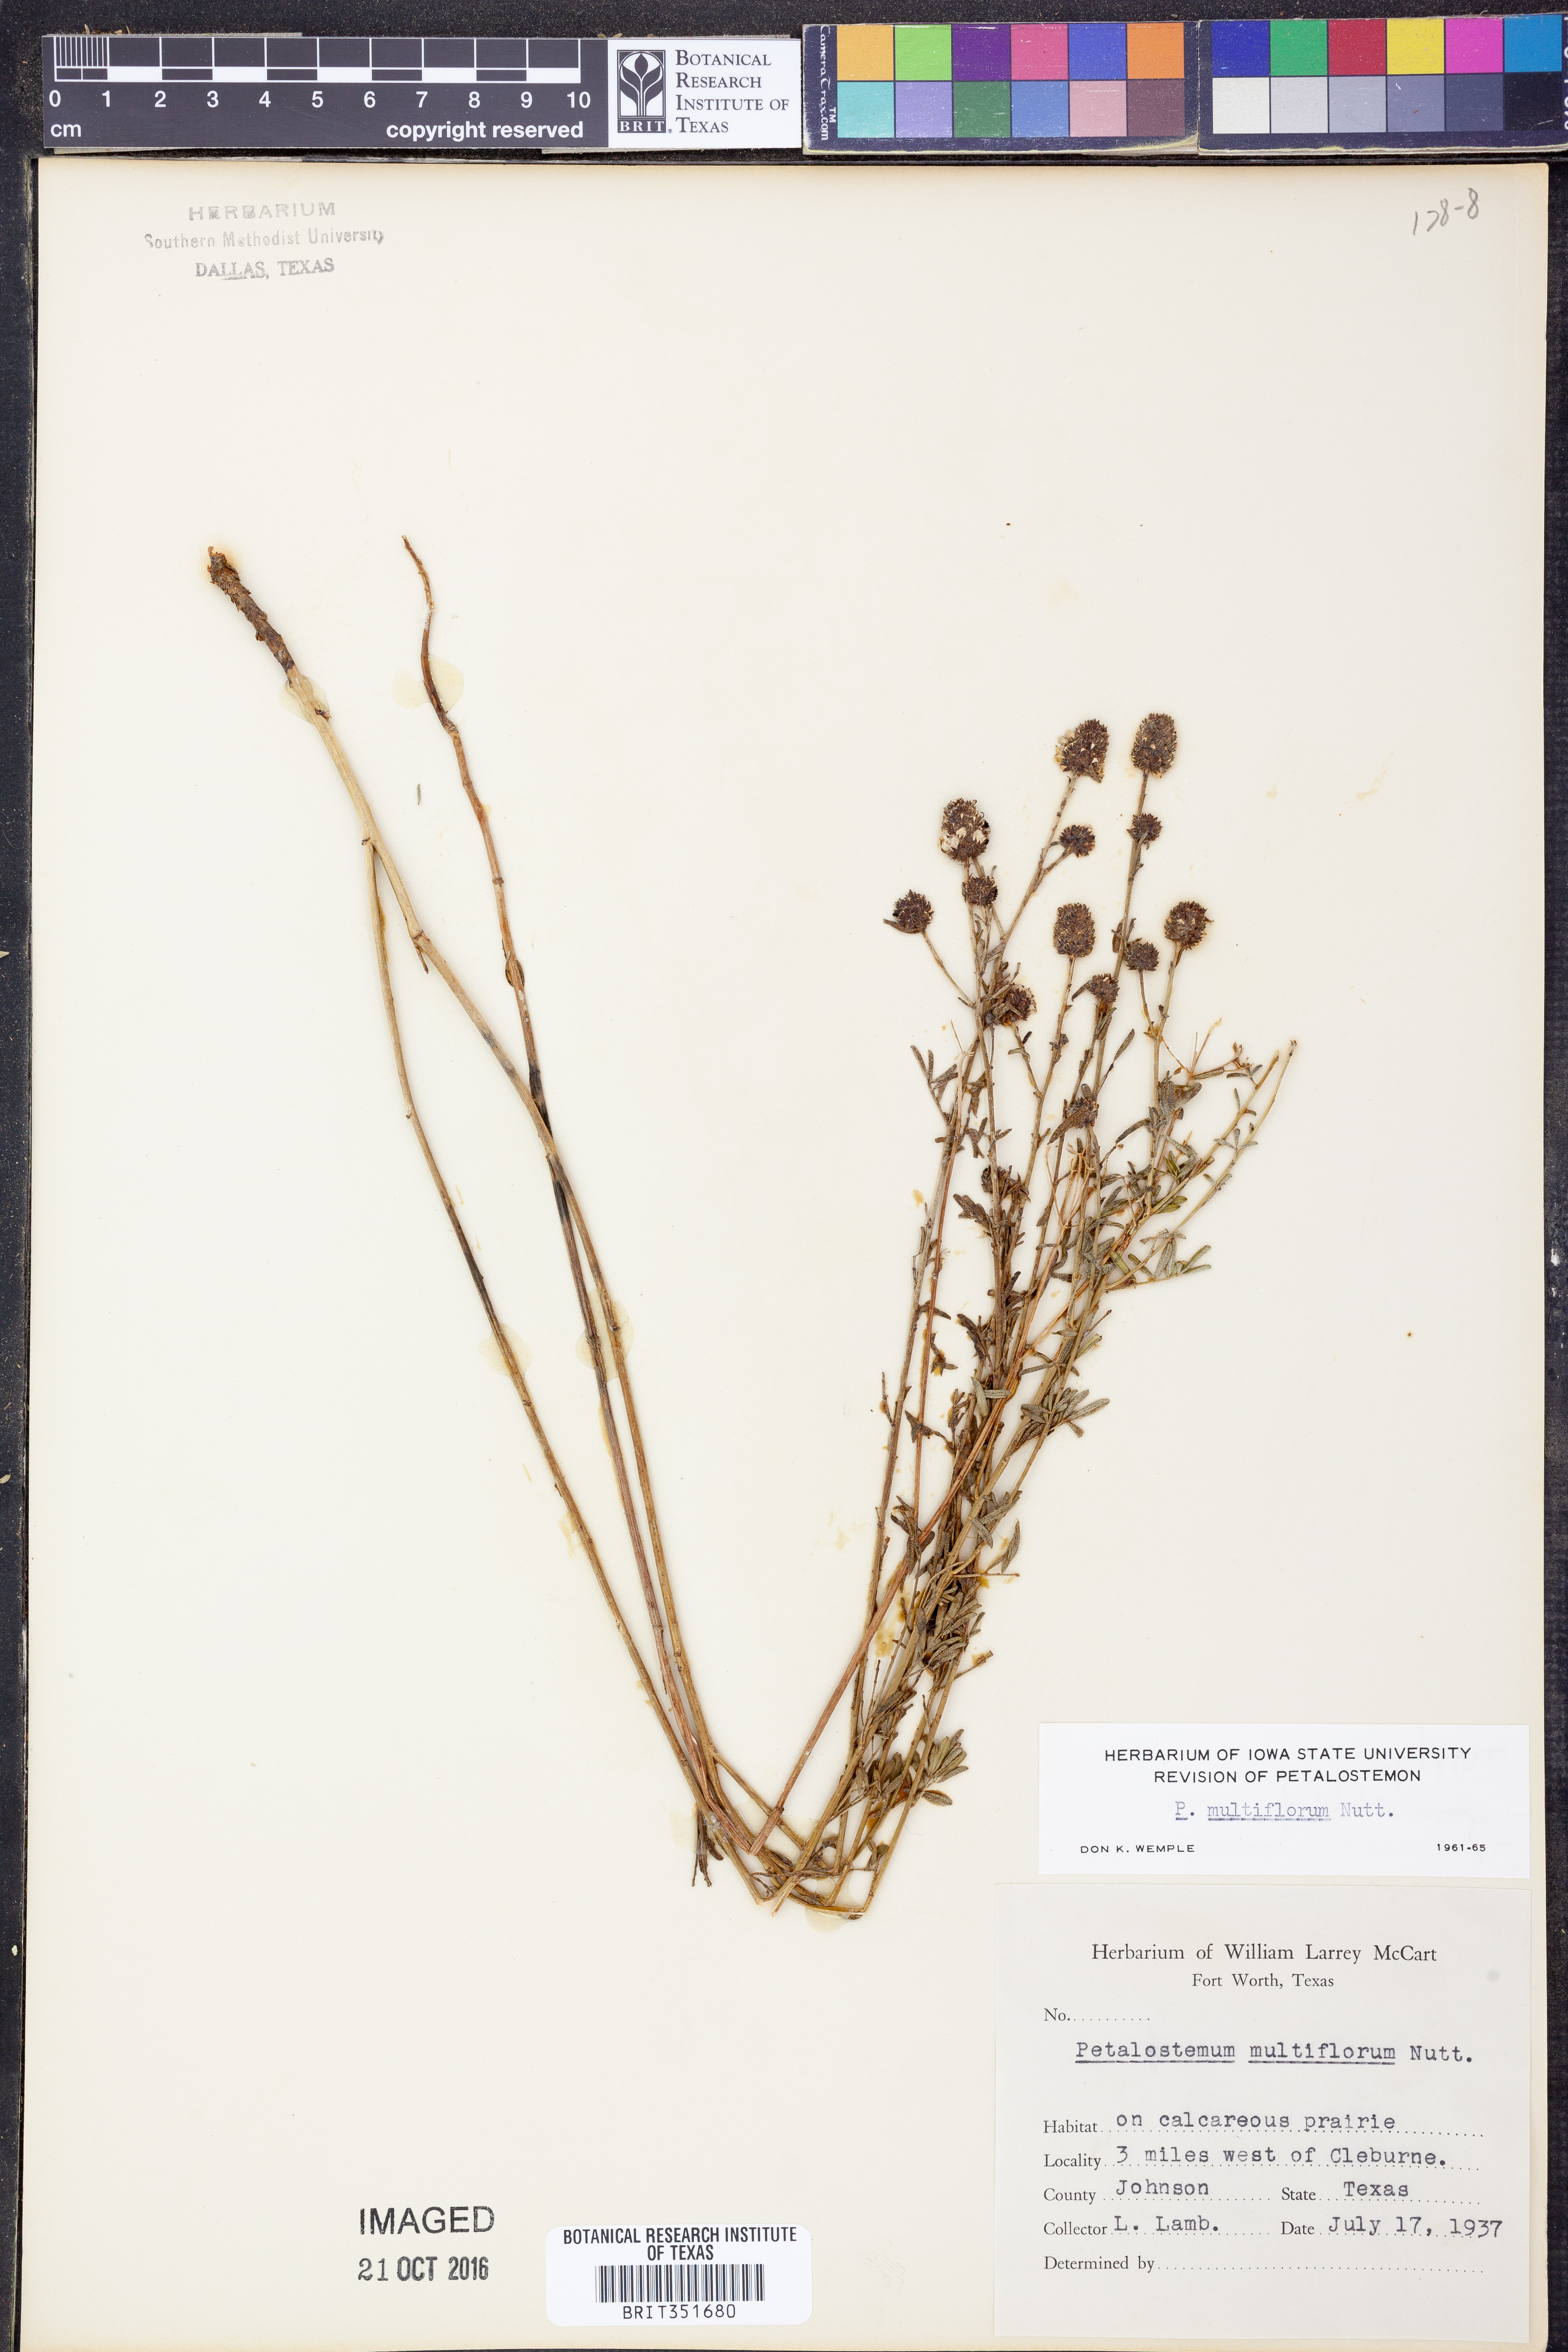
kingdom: Plantae
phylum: Tracheophyta
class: Magnoliopsida
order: Fabales
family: Fabaceae
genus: Dalea
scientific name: Dalea multiflora
